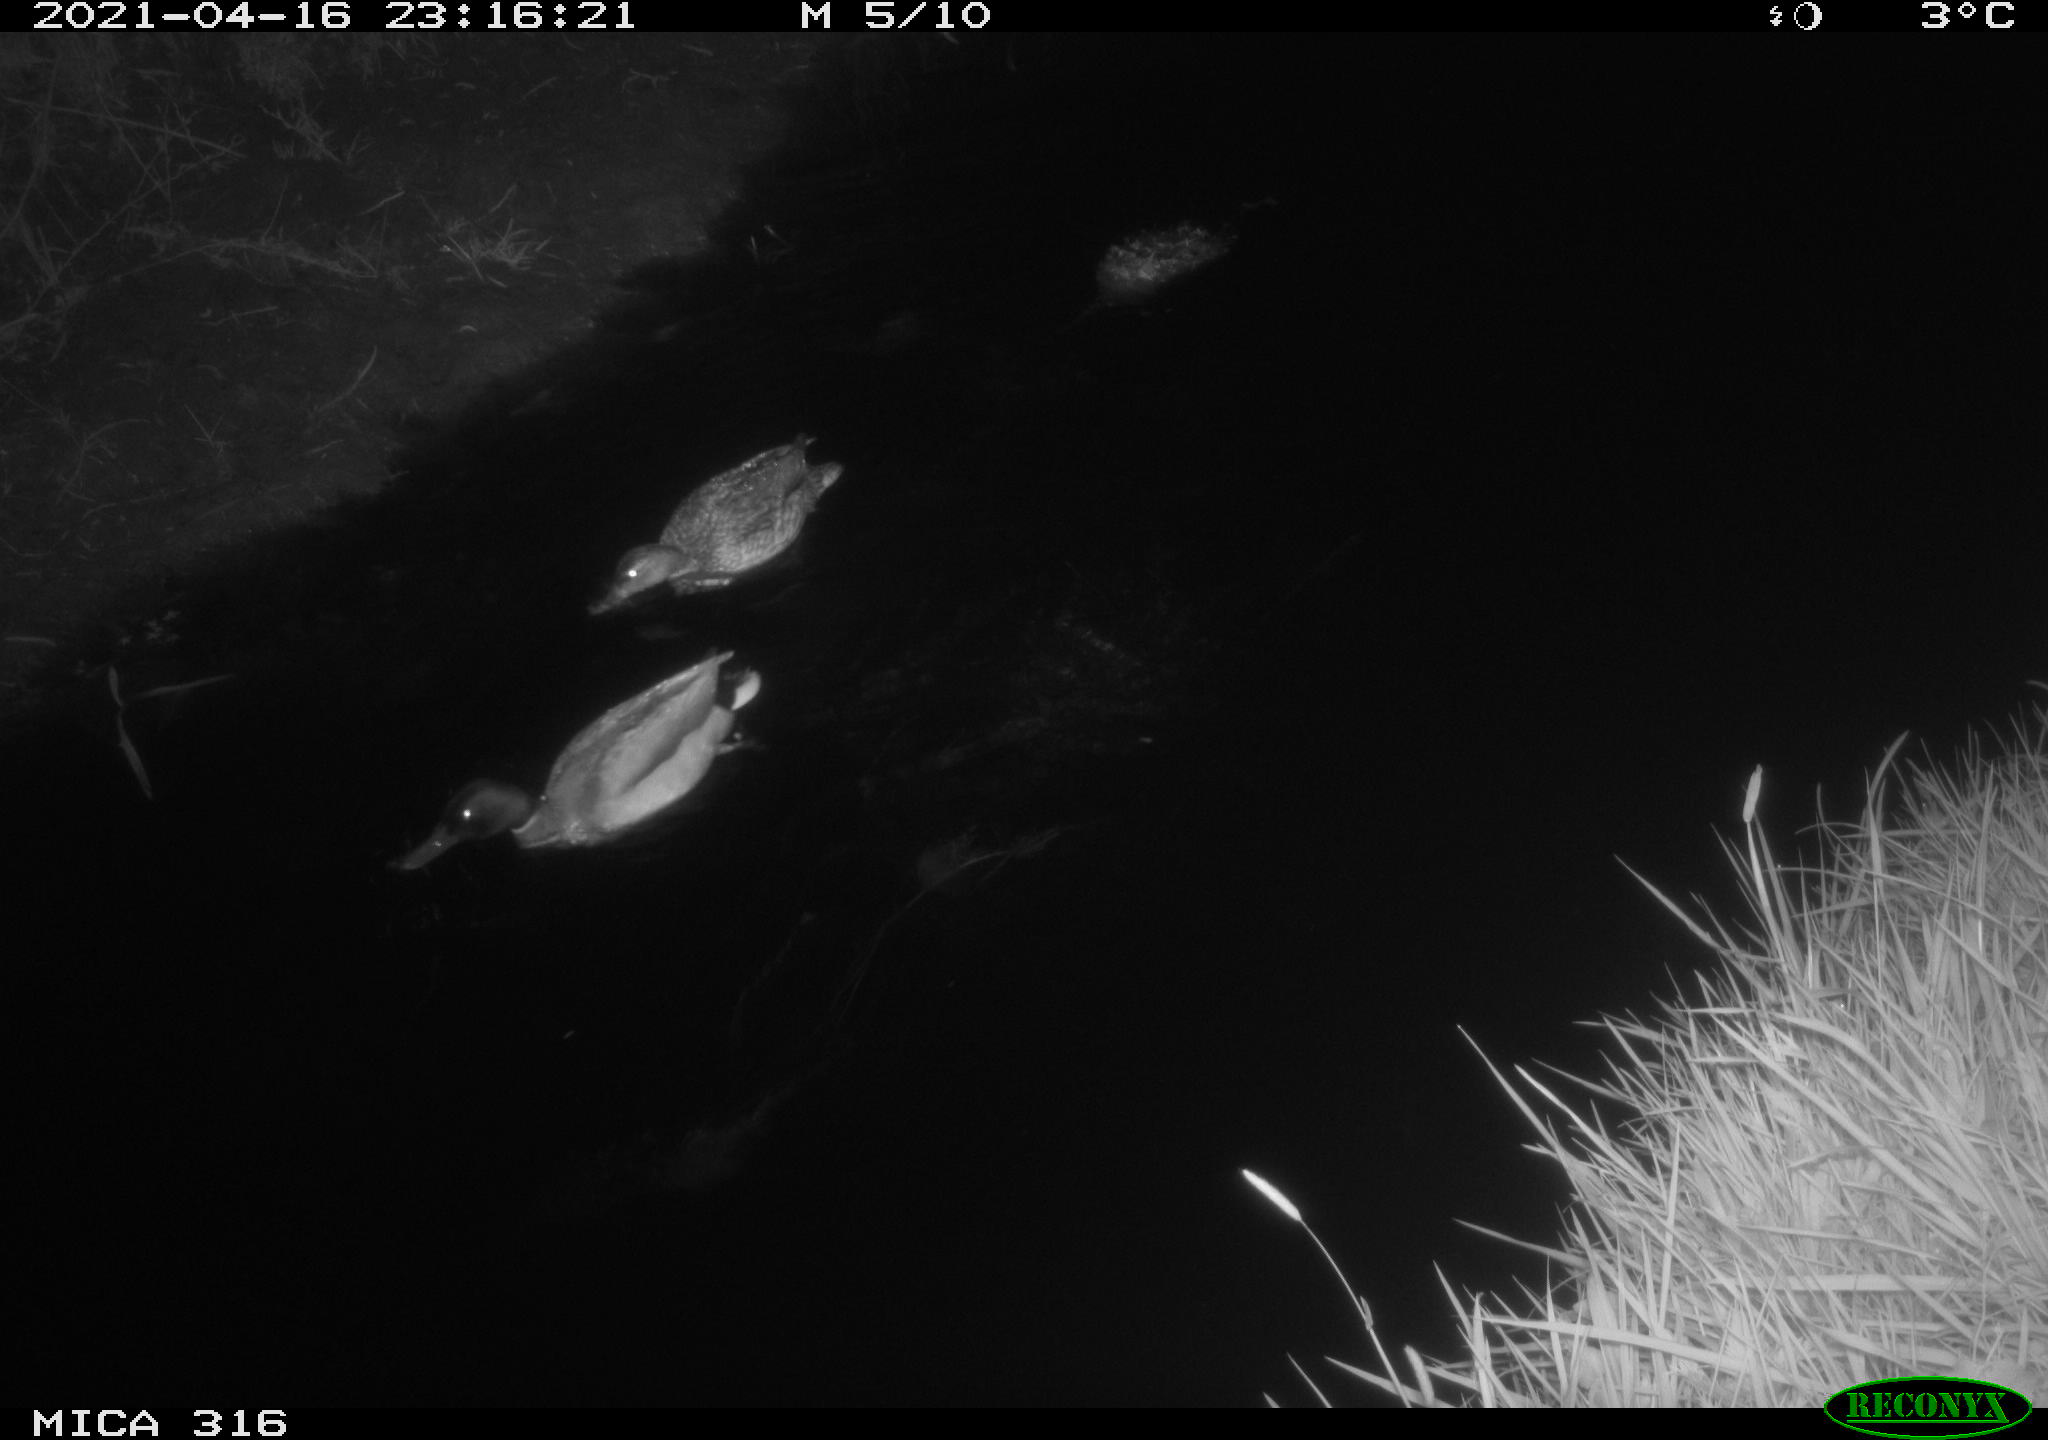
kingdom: Animalia
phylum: Chordata
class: Aves
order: Anseriformes
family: Anatidae
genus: Anas
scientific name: Anas platyrhynchos
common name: Mallard
